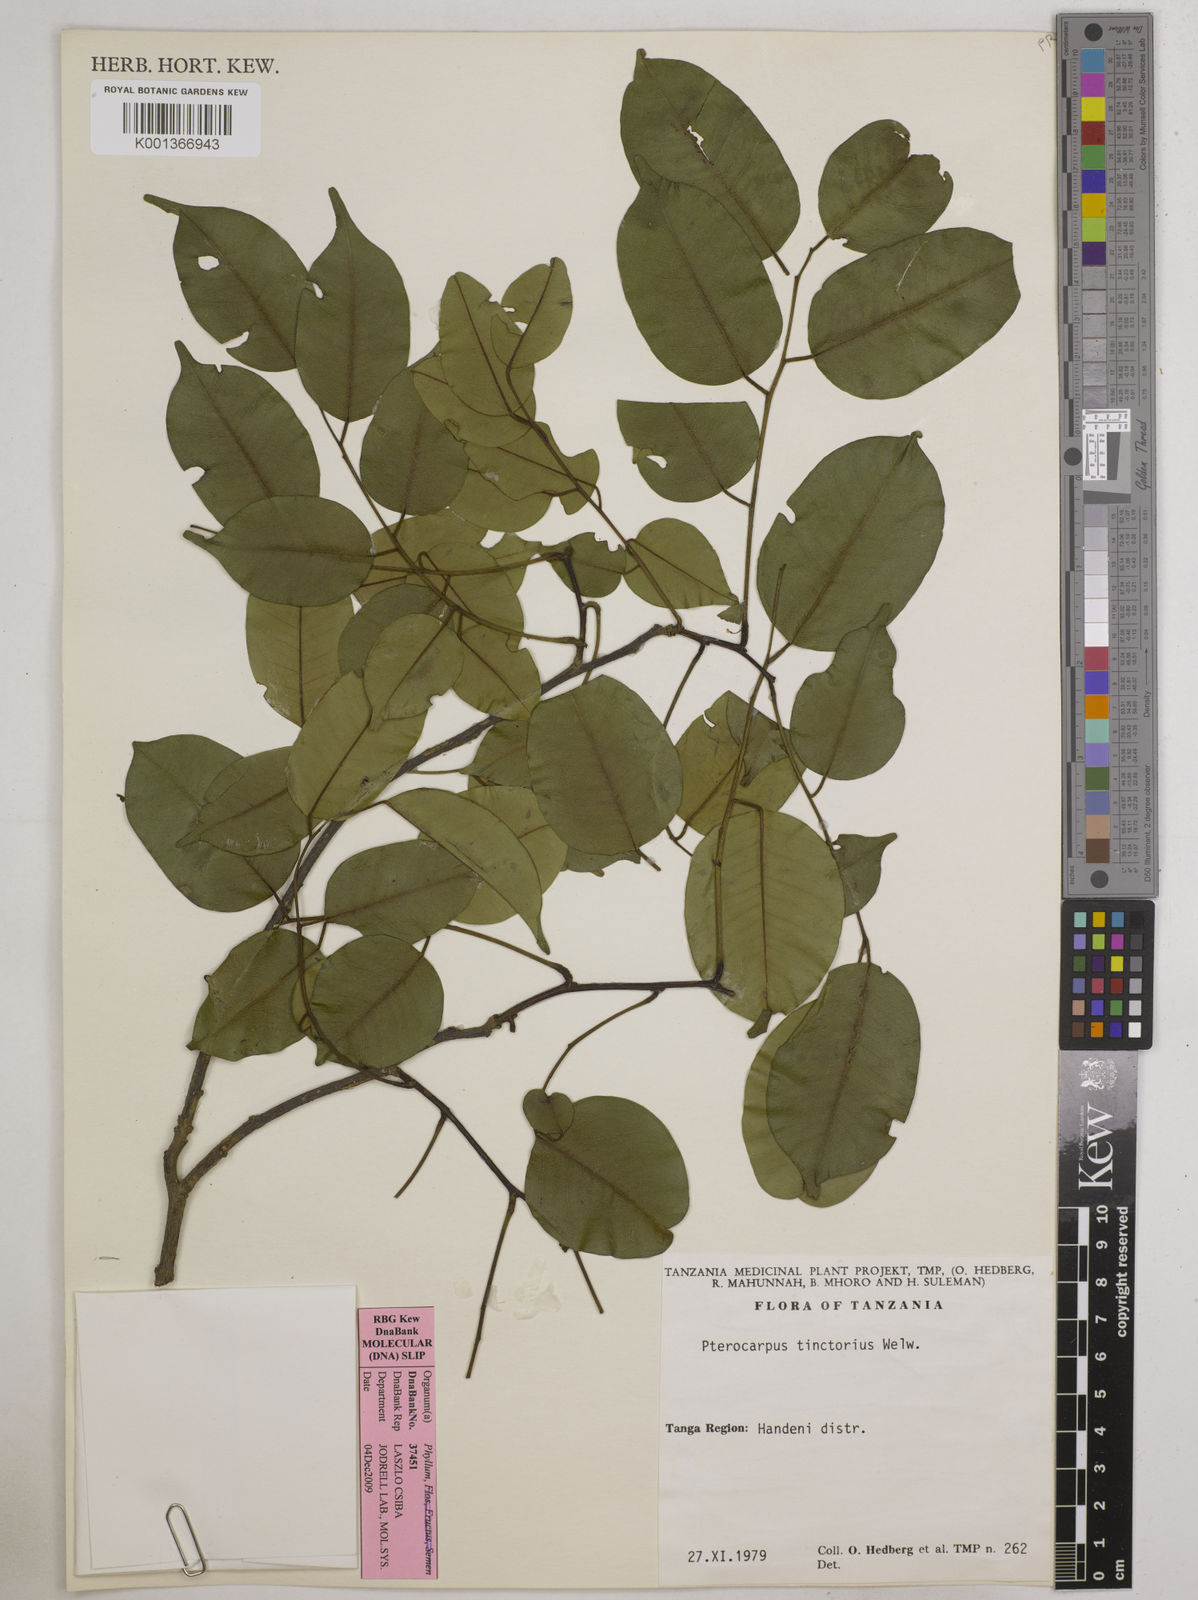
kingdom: Plantae
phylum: Tracheophyta
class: Magnoliopsida
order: Fabales
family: Fabaceae
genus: Pterocarpus
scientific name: Pterocarpus tinctorius
